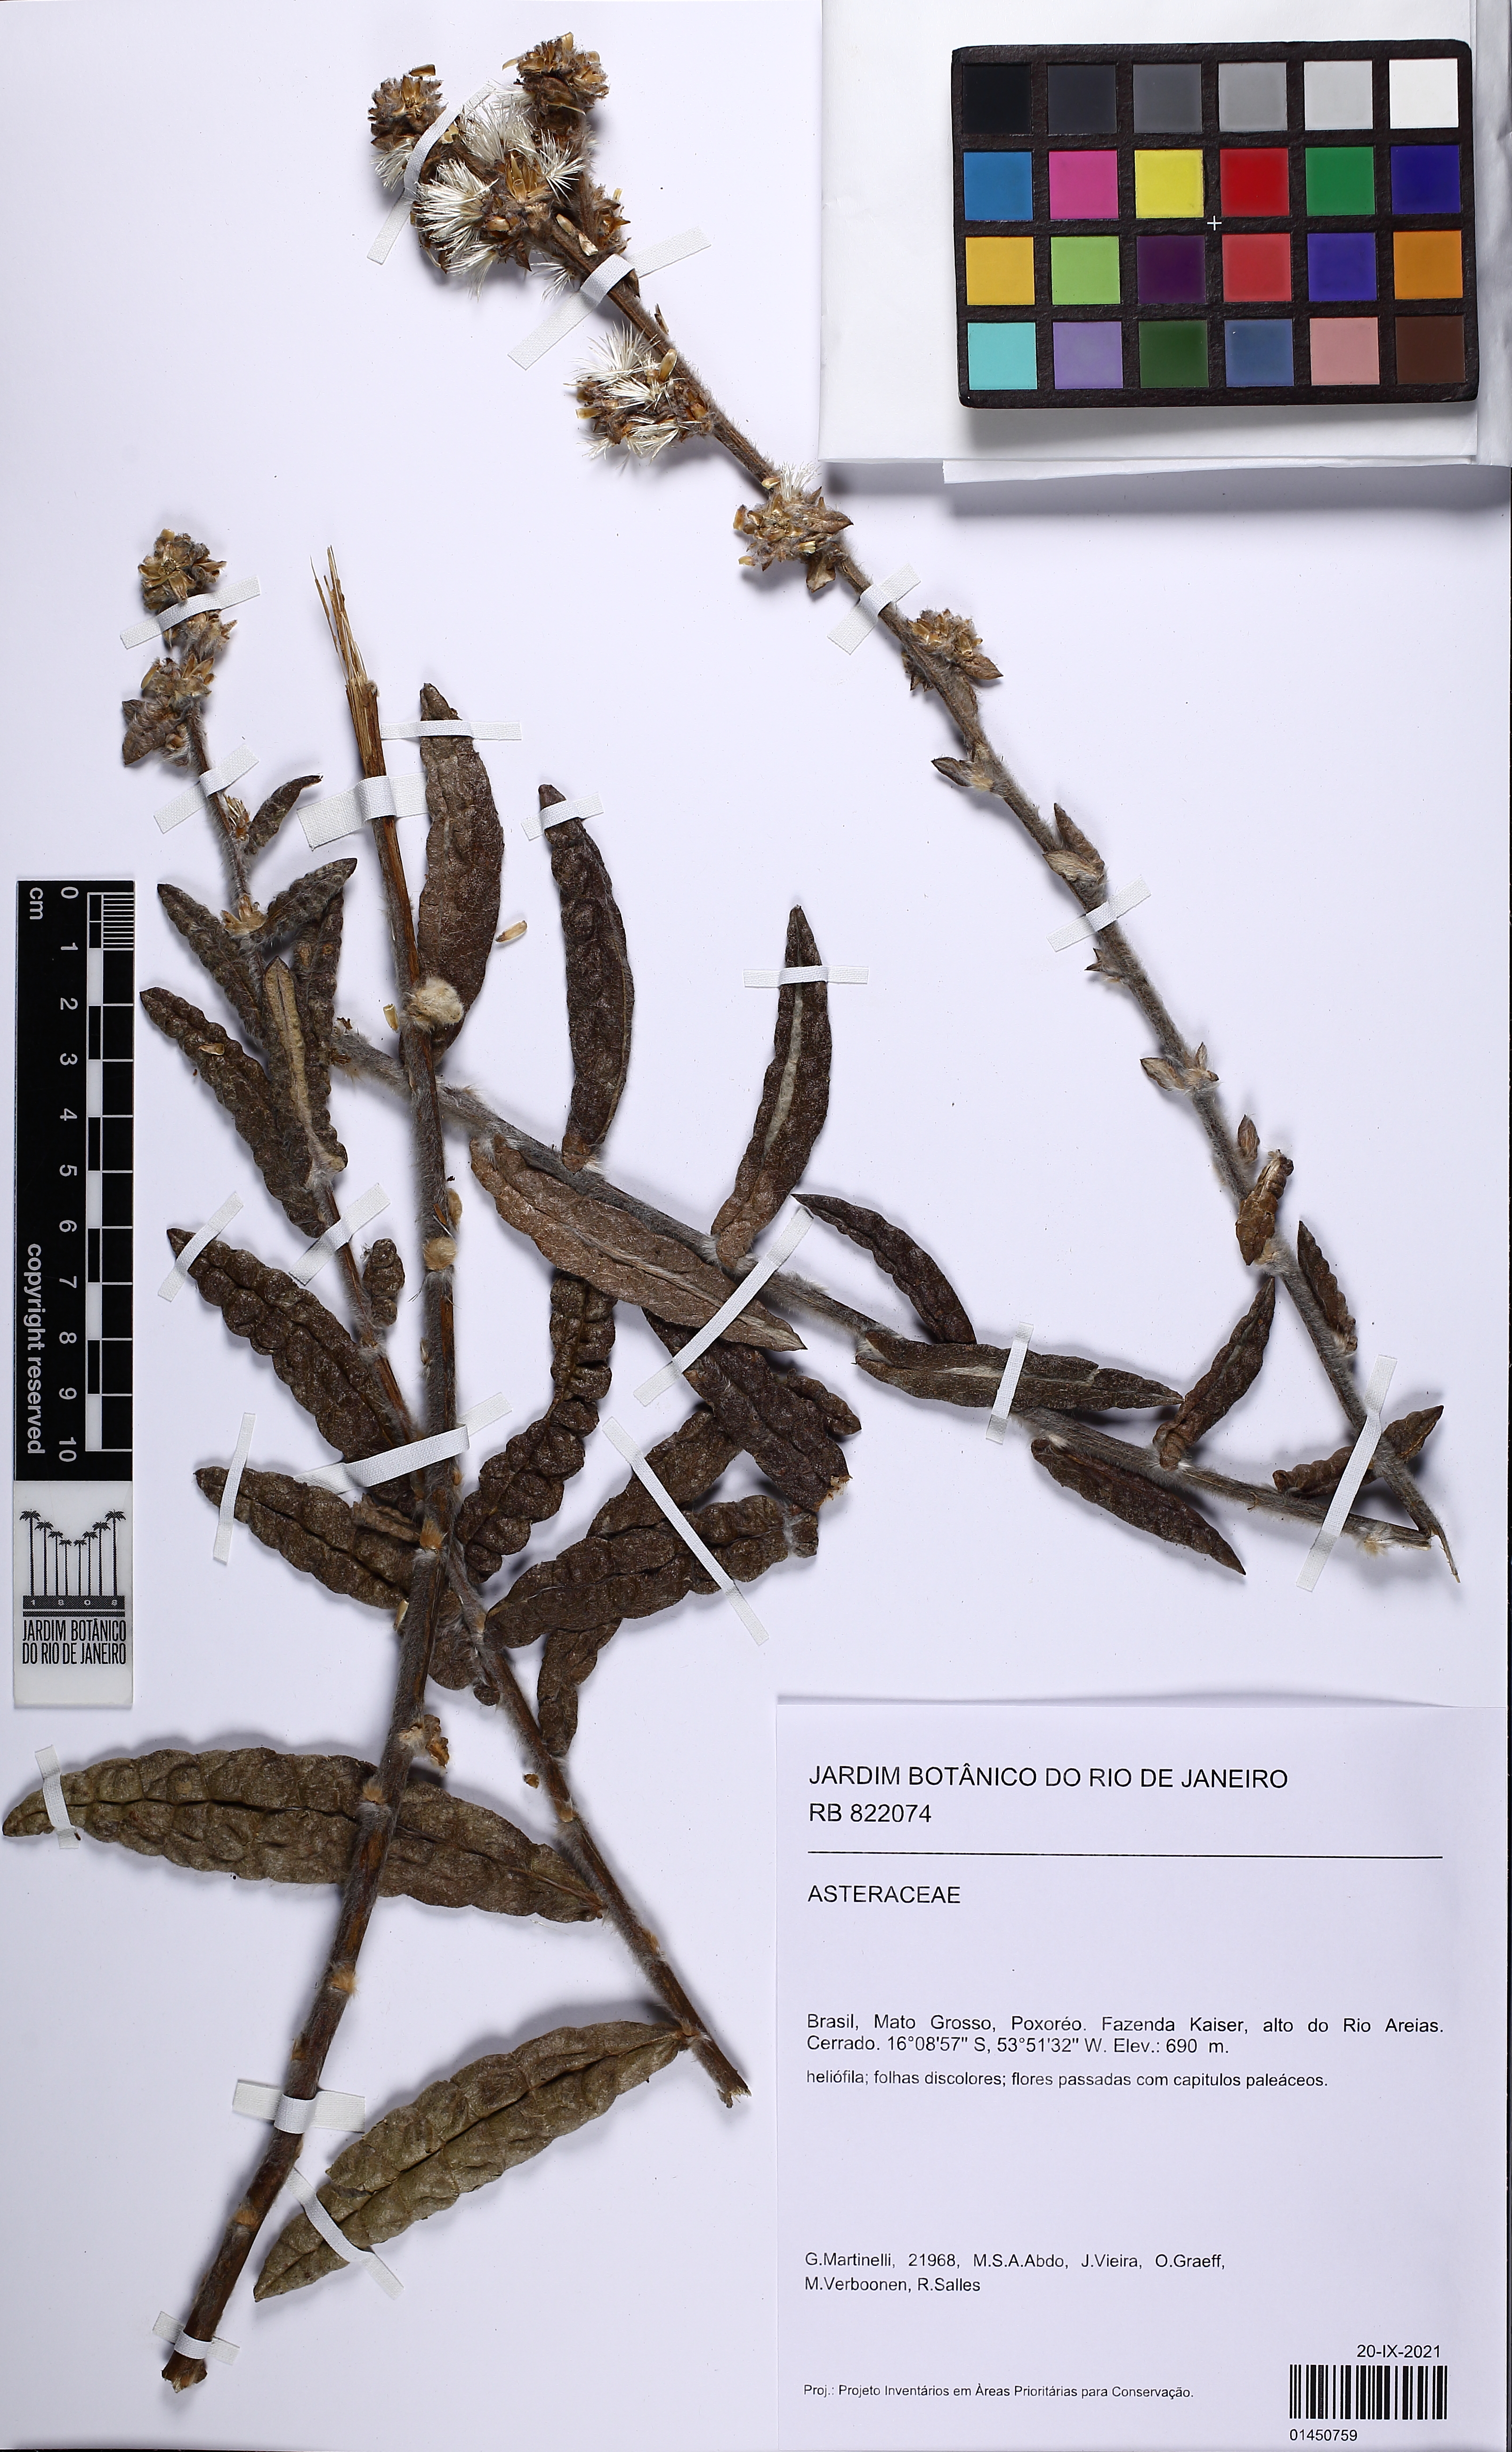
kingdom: Plantae
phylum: Tracheophyta
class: Magnoliopsida
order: Asterales
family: Asteraceae
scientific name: Asteraceae
